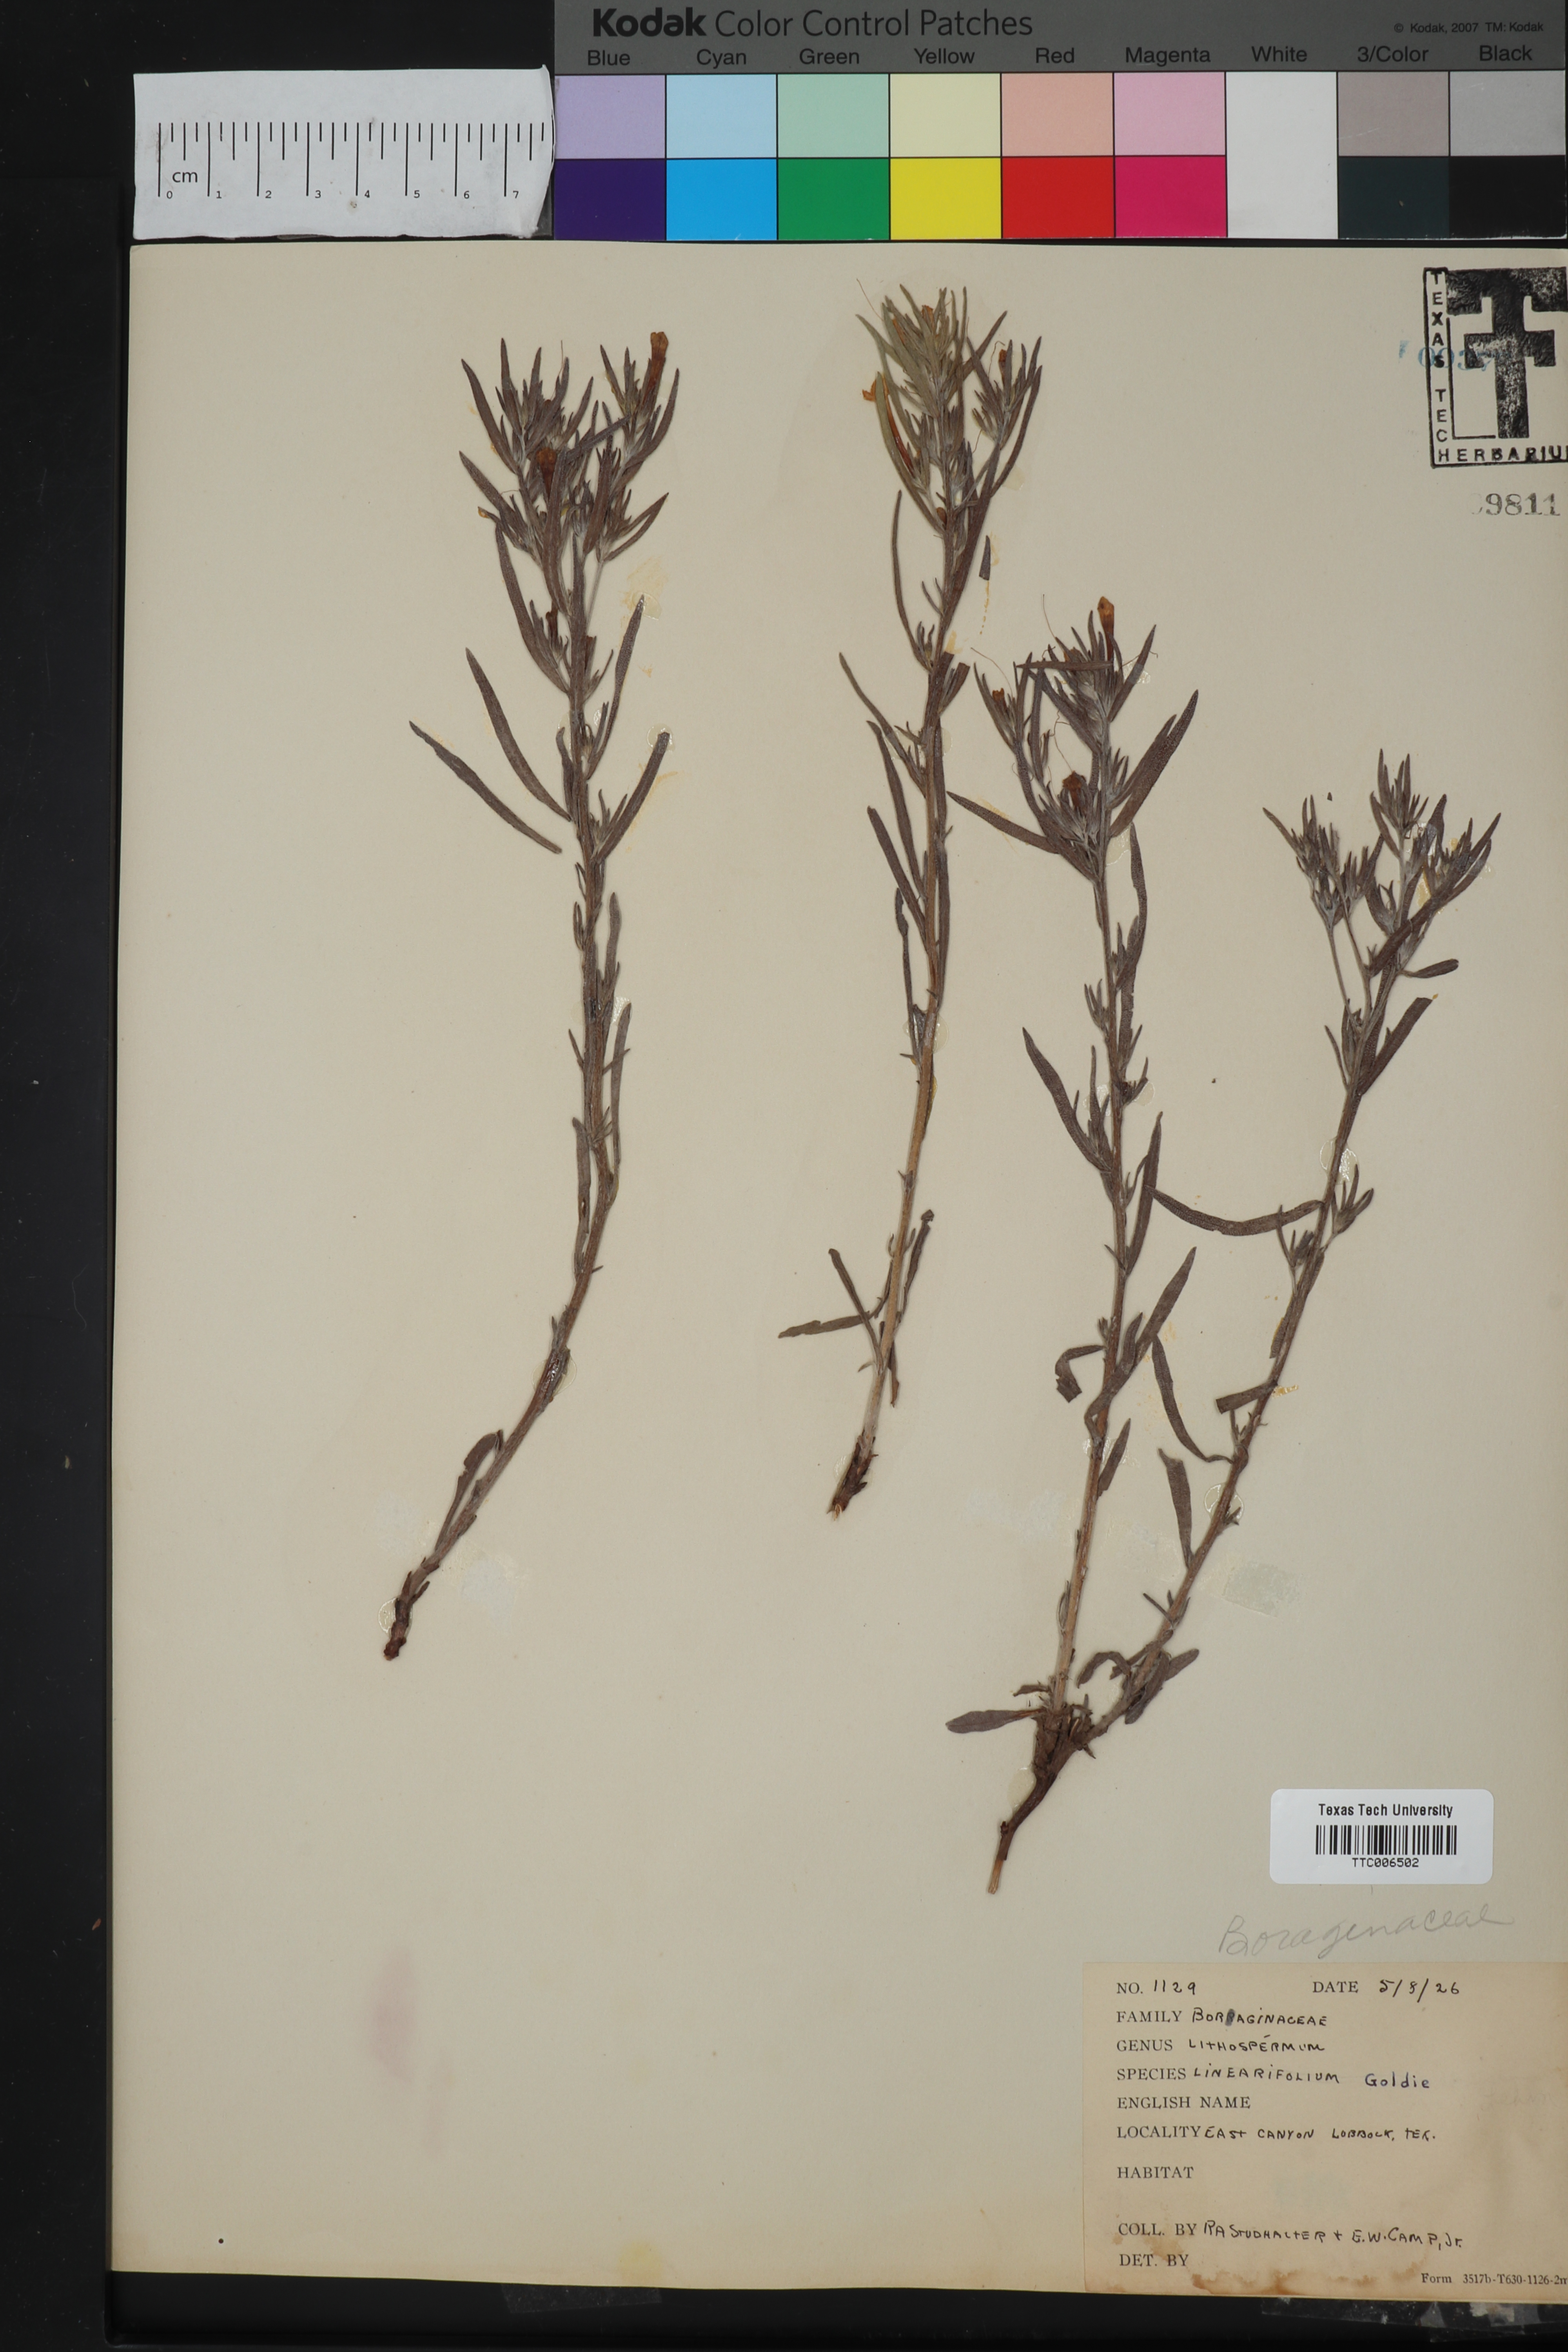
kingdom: Plantae
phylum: Tracheophyta
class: Magnoliopsida
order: Boraginales
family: Boraginaceae
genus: Lithospermum
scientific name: Lithospermum incisum
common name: Fringed gromwell
